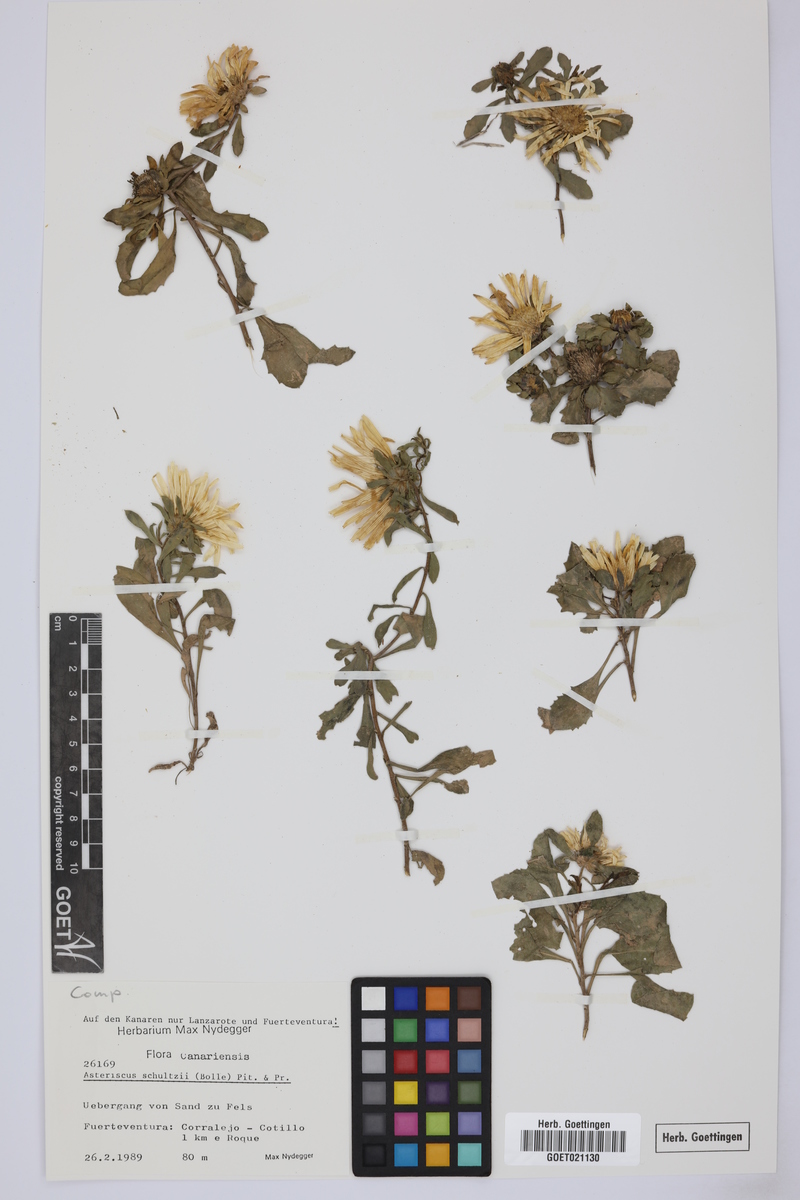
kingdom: Plantae
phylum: Tracheophyta
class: Magnoliopsida
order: Asterales
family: Asteraceae
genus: Asteriscus
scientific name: Asteriscus schultzii
